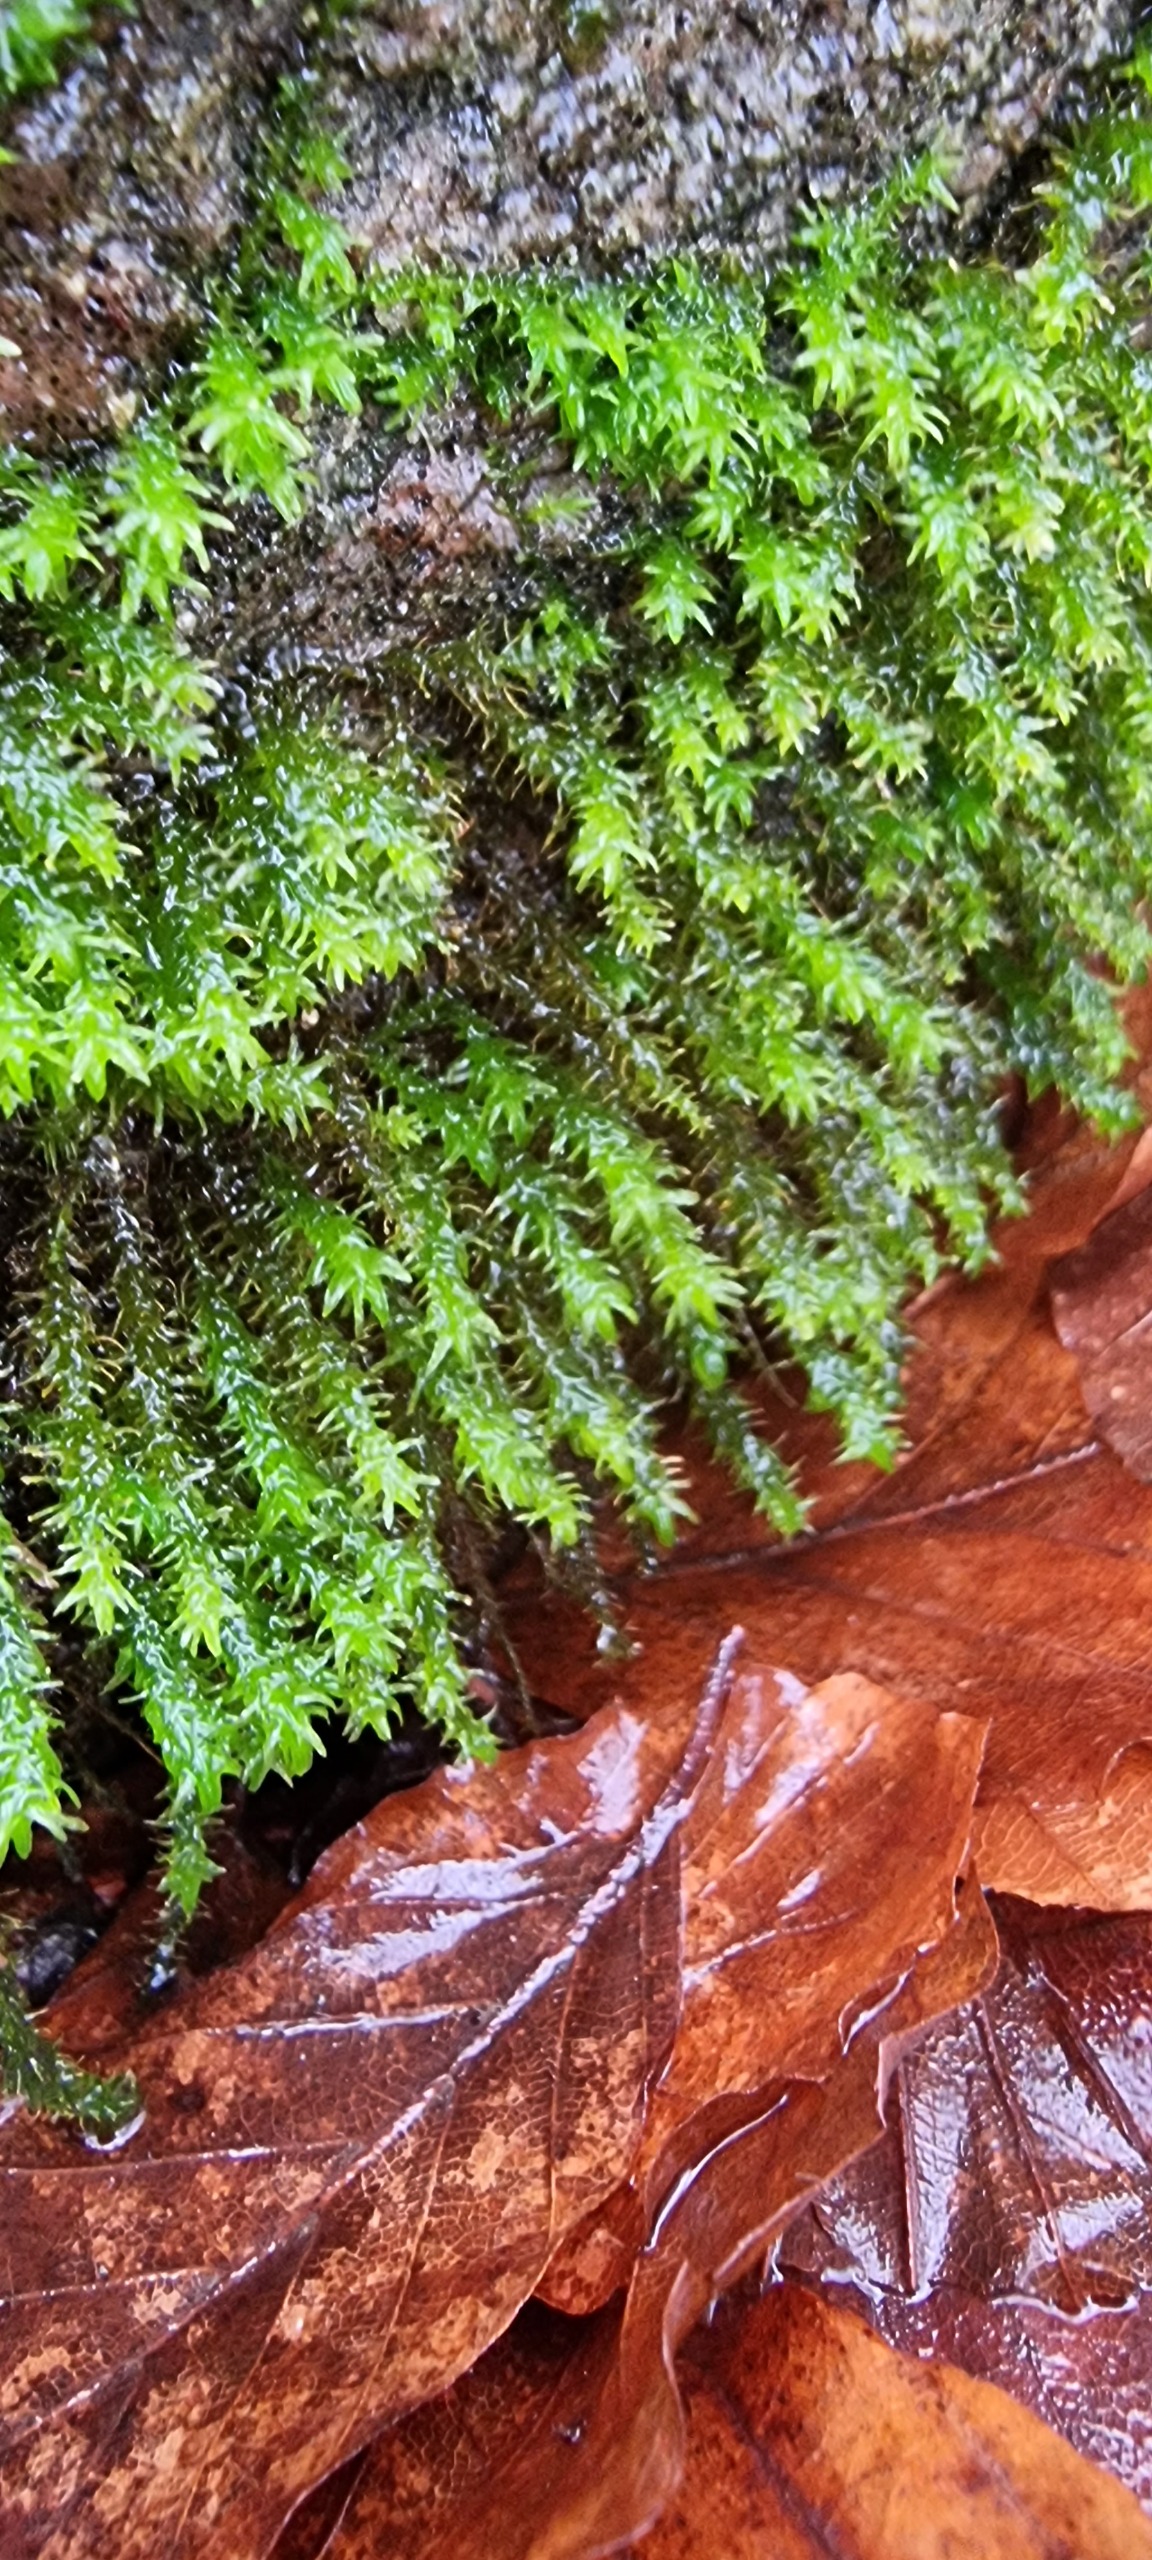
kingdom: Plantae
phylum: Bryophyta
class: Bryopsida
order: Hypnales
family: Anomodontaceae
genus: Anomodon
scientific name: Anomodon viticulosus
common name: Robust matblad
